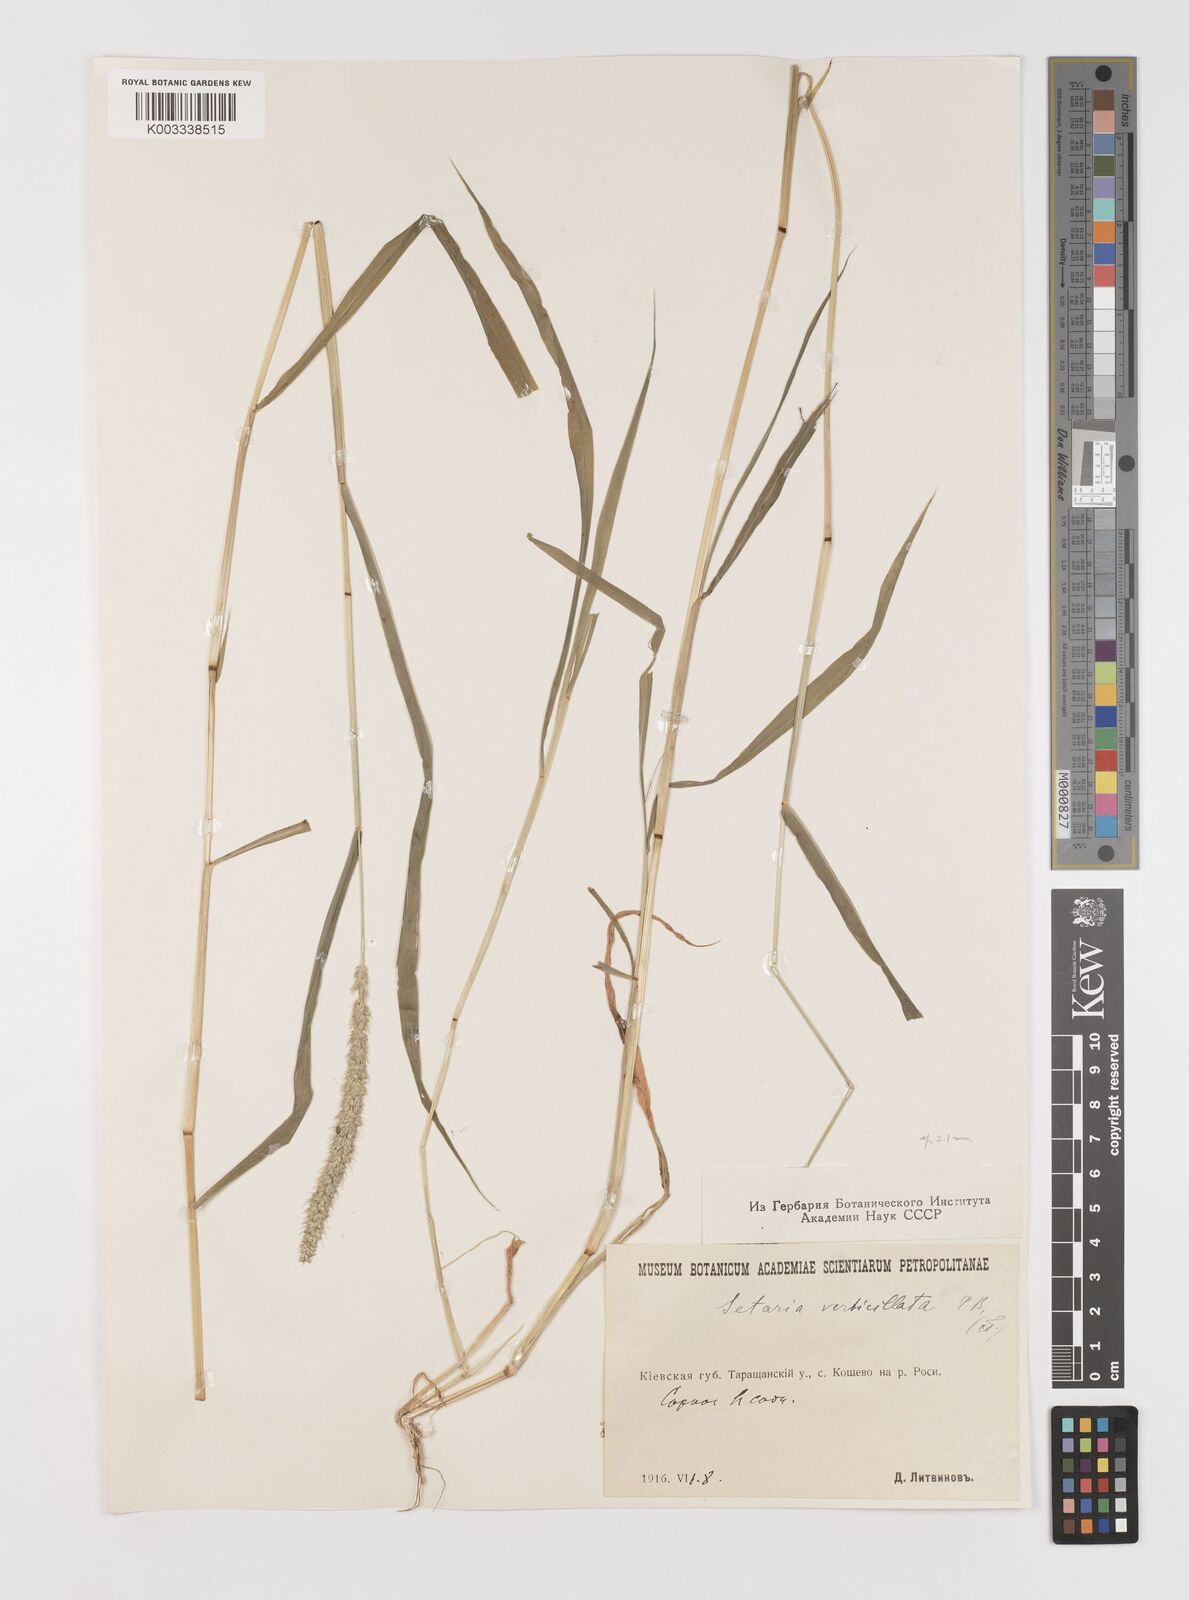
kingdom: Plantae
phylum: Tracheophyta
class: Liliopsida
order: Poales
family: Poaceae
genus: Setaria
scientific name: Setaria verticillata
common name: Hooked bristlegrass
